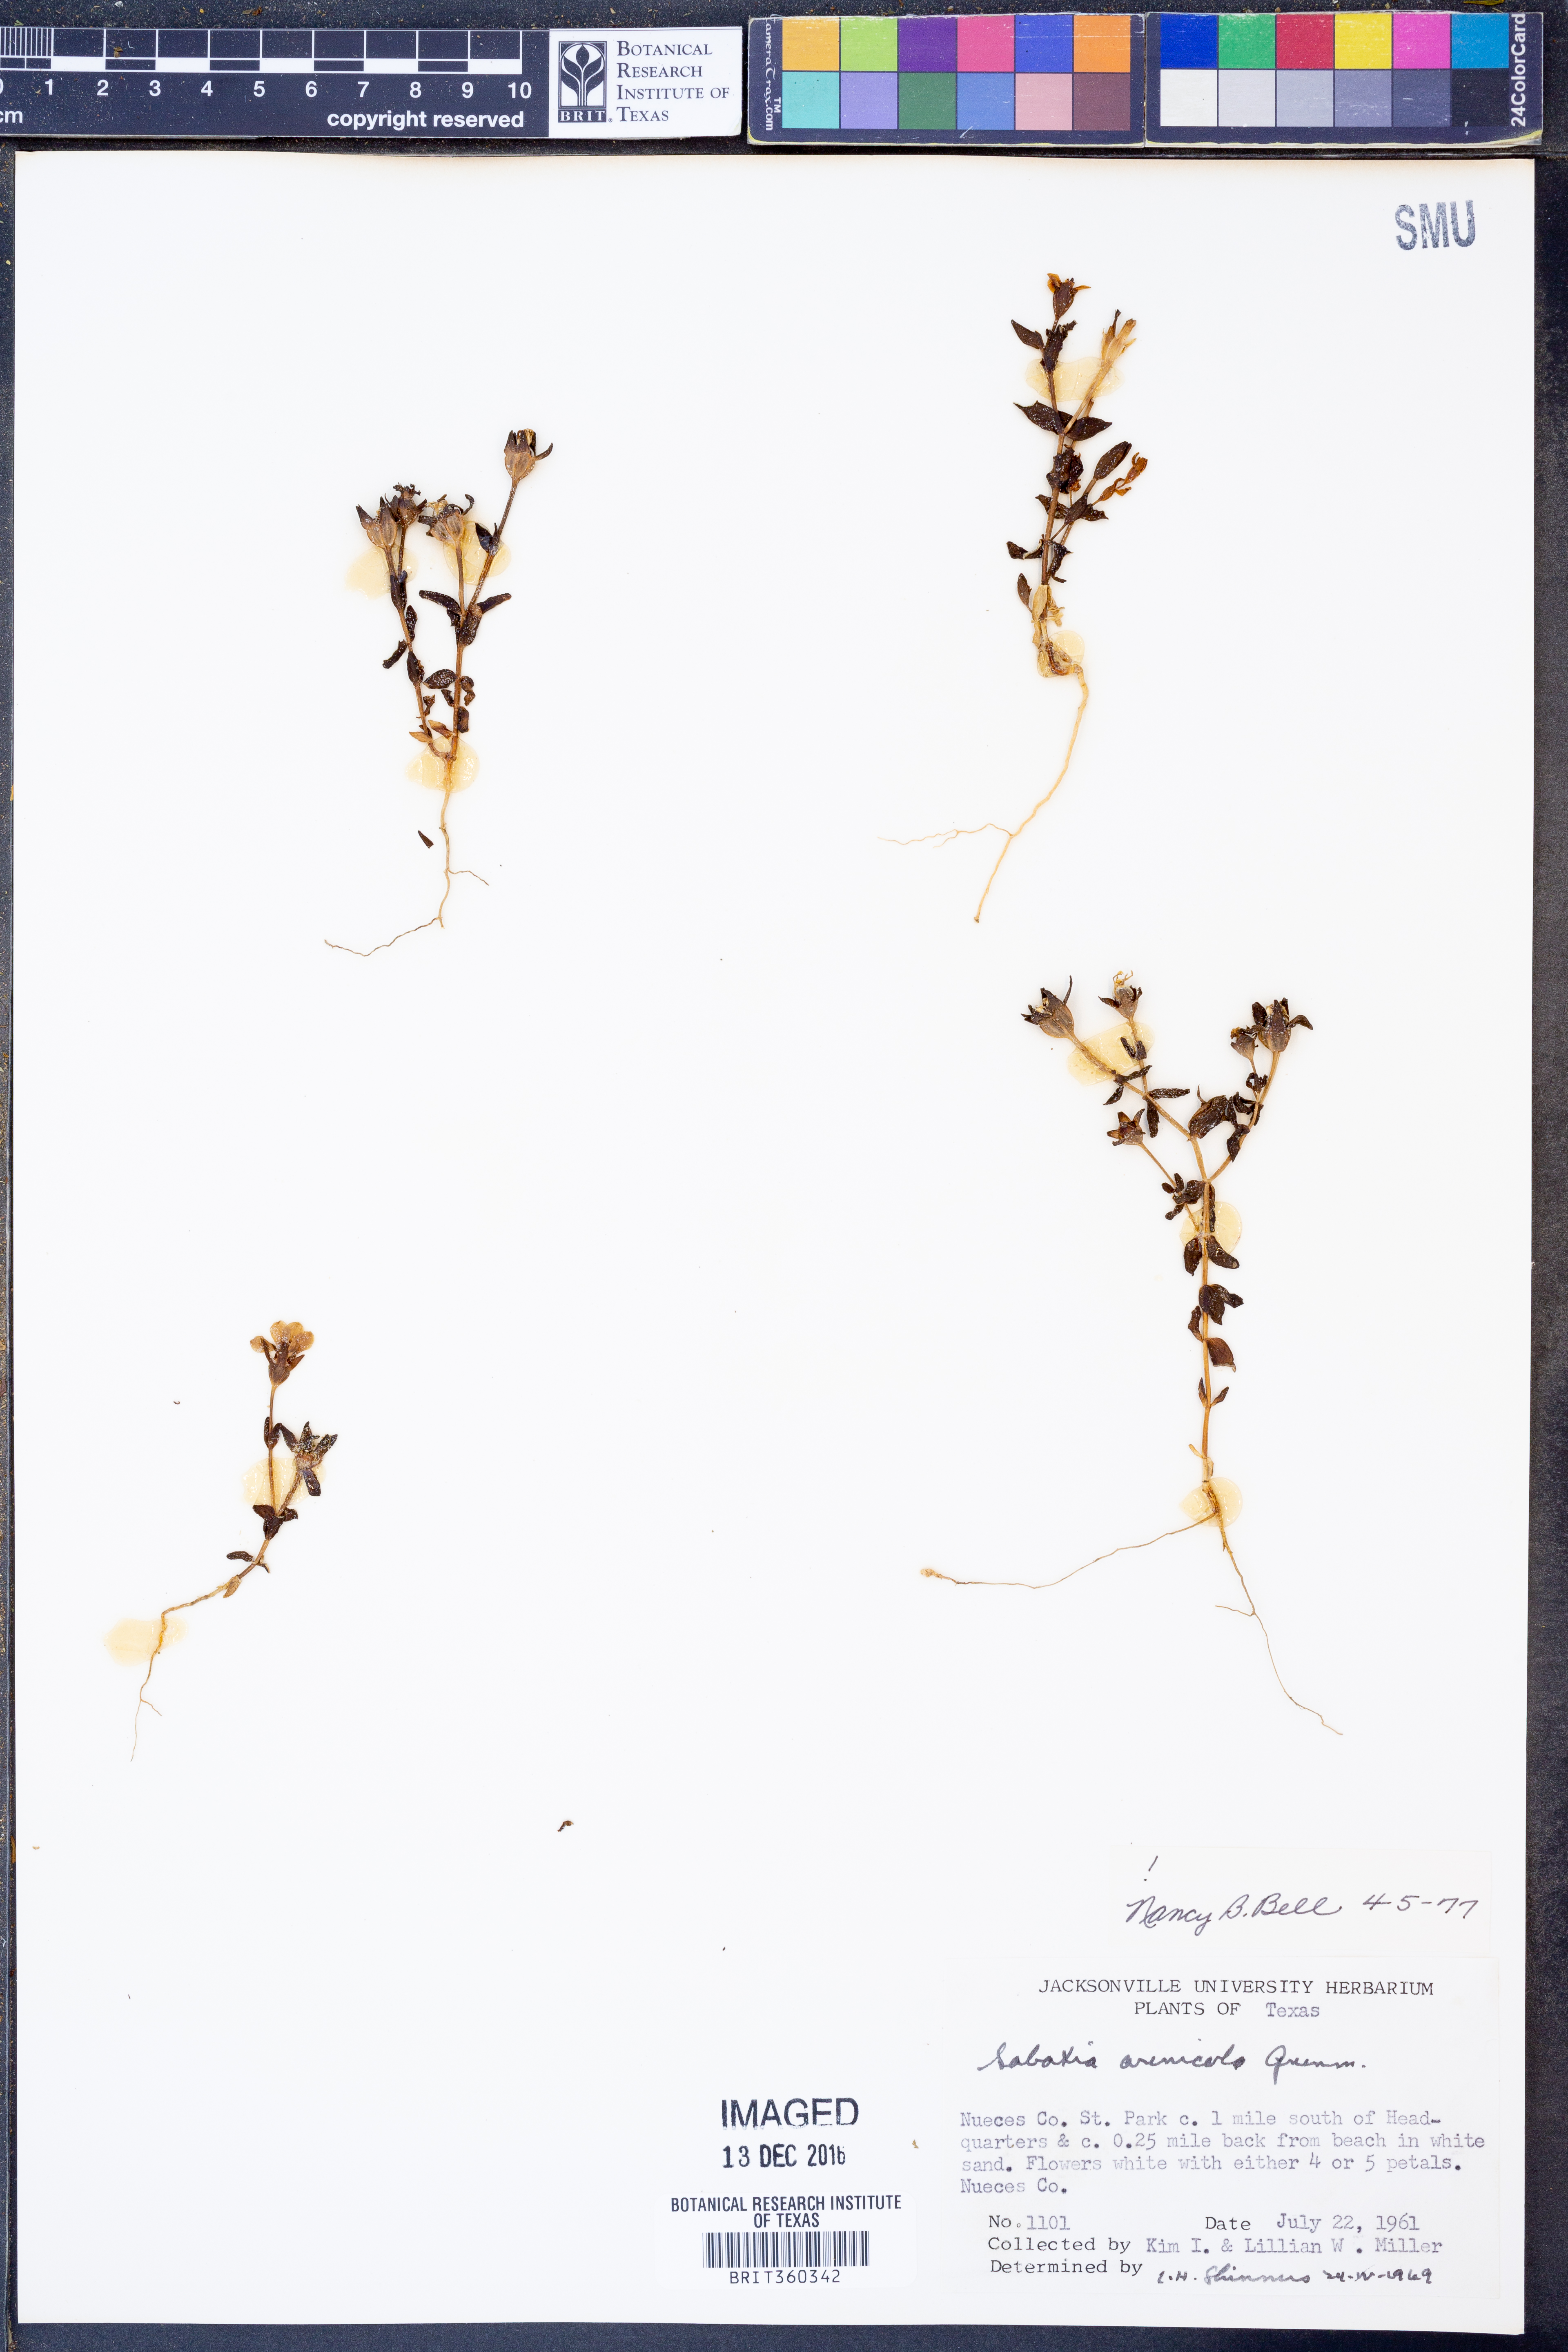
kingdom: Plantae
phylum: Tracheophyta
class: Magnoliopsida
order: Gentianales
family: Gentianaceae
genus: Sabatia
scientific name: Sabatia arenicola
